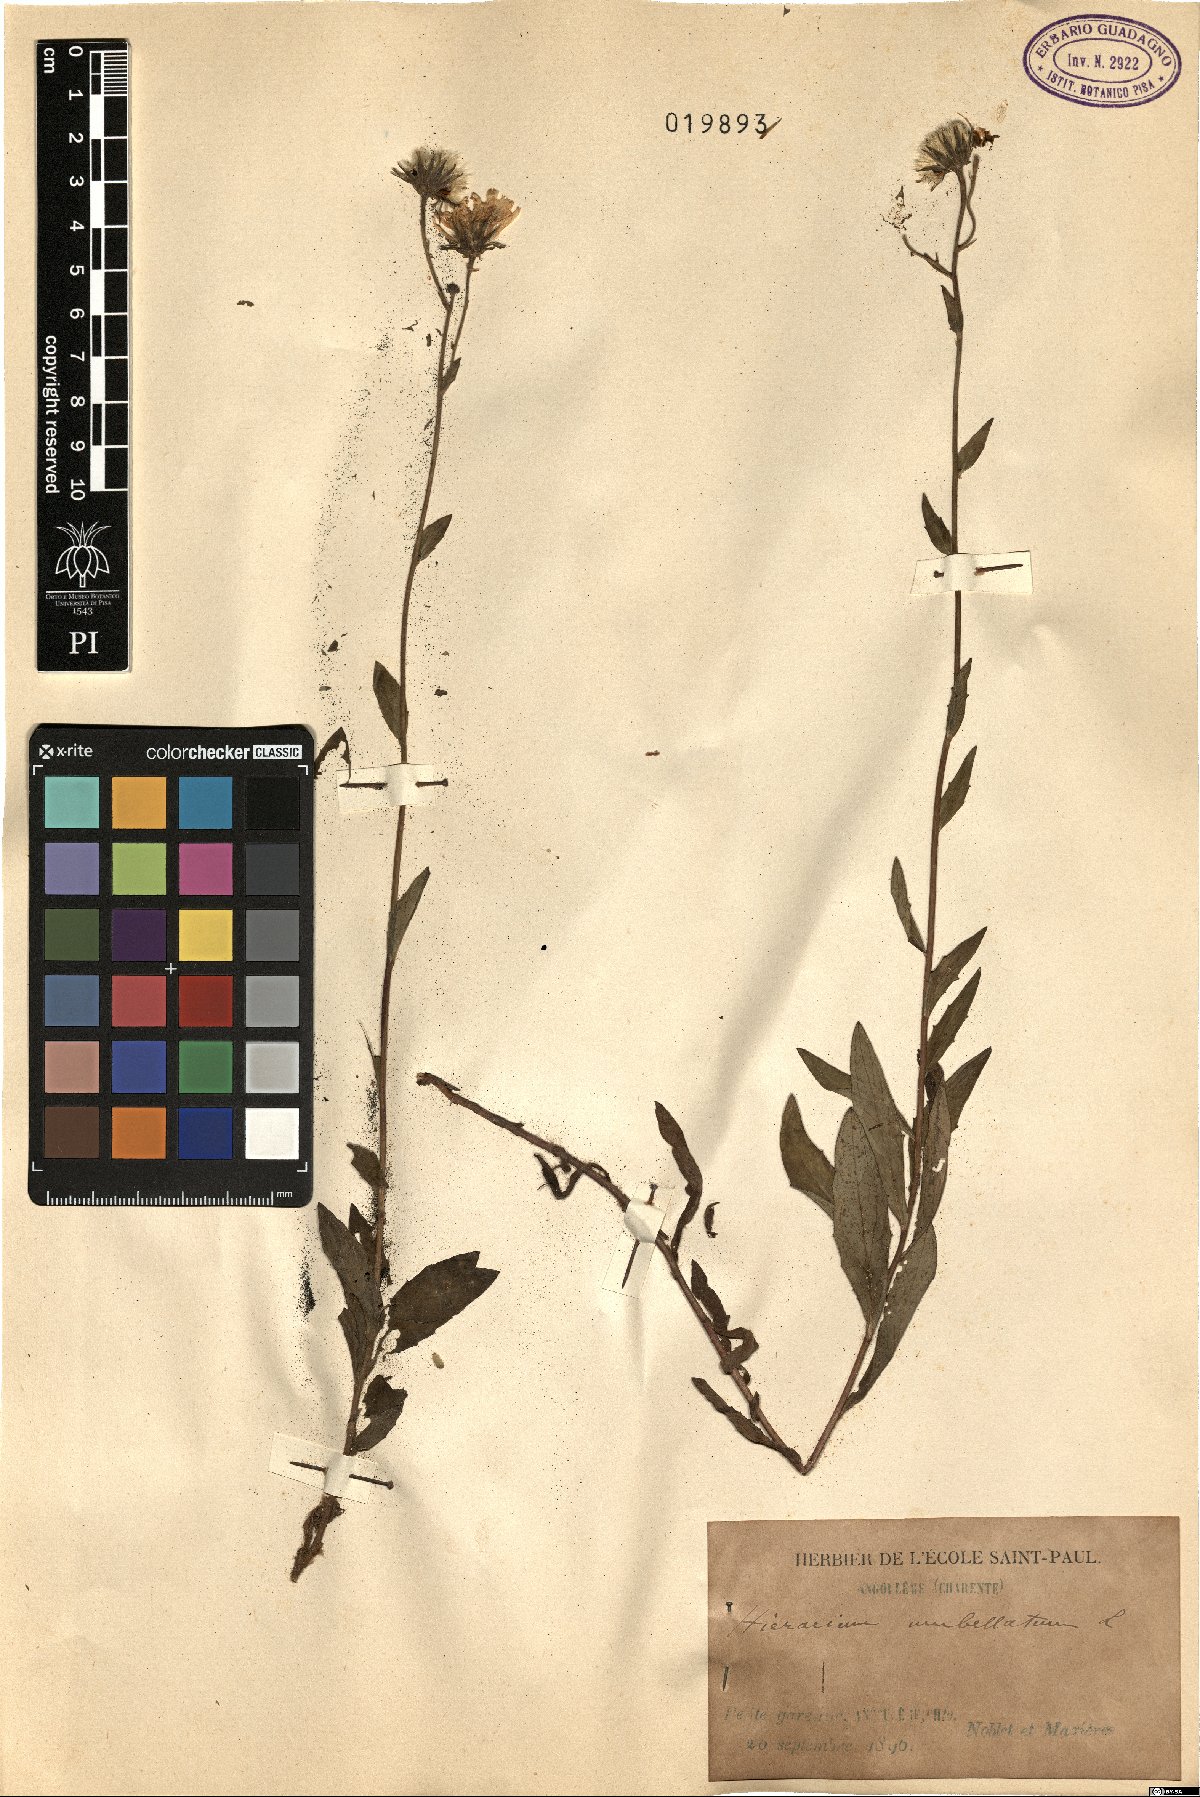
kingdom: Plantae
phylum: Tracheophyta
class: Magnoliopsida
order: Asterales
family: Asteraceae
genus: Hieracium
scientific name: Hieracium umbellatum
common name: Northern hawkweed
